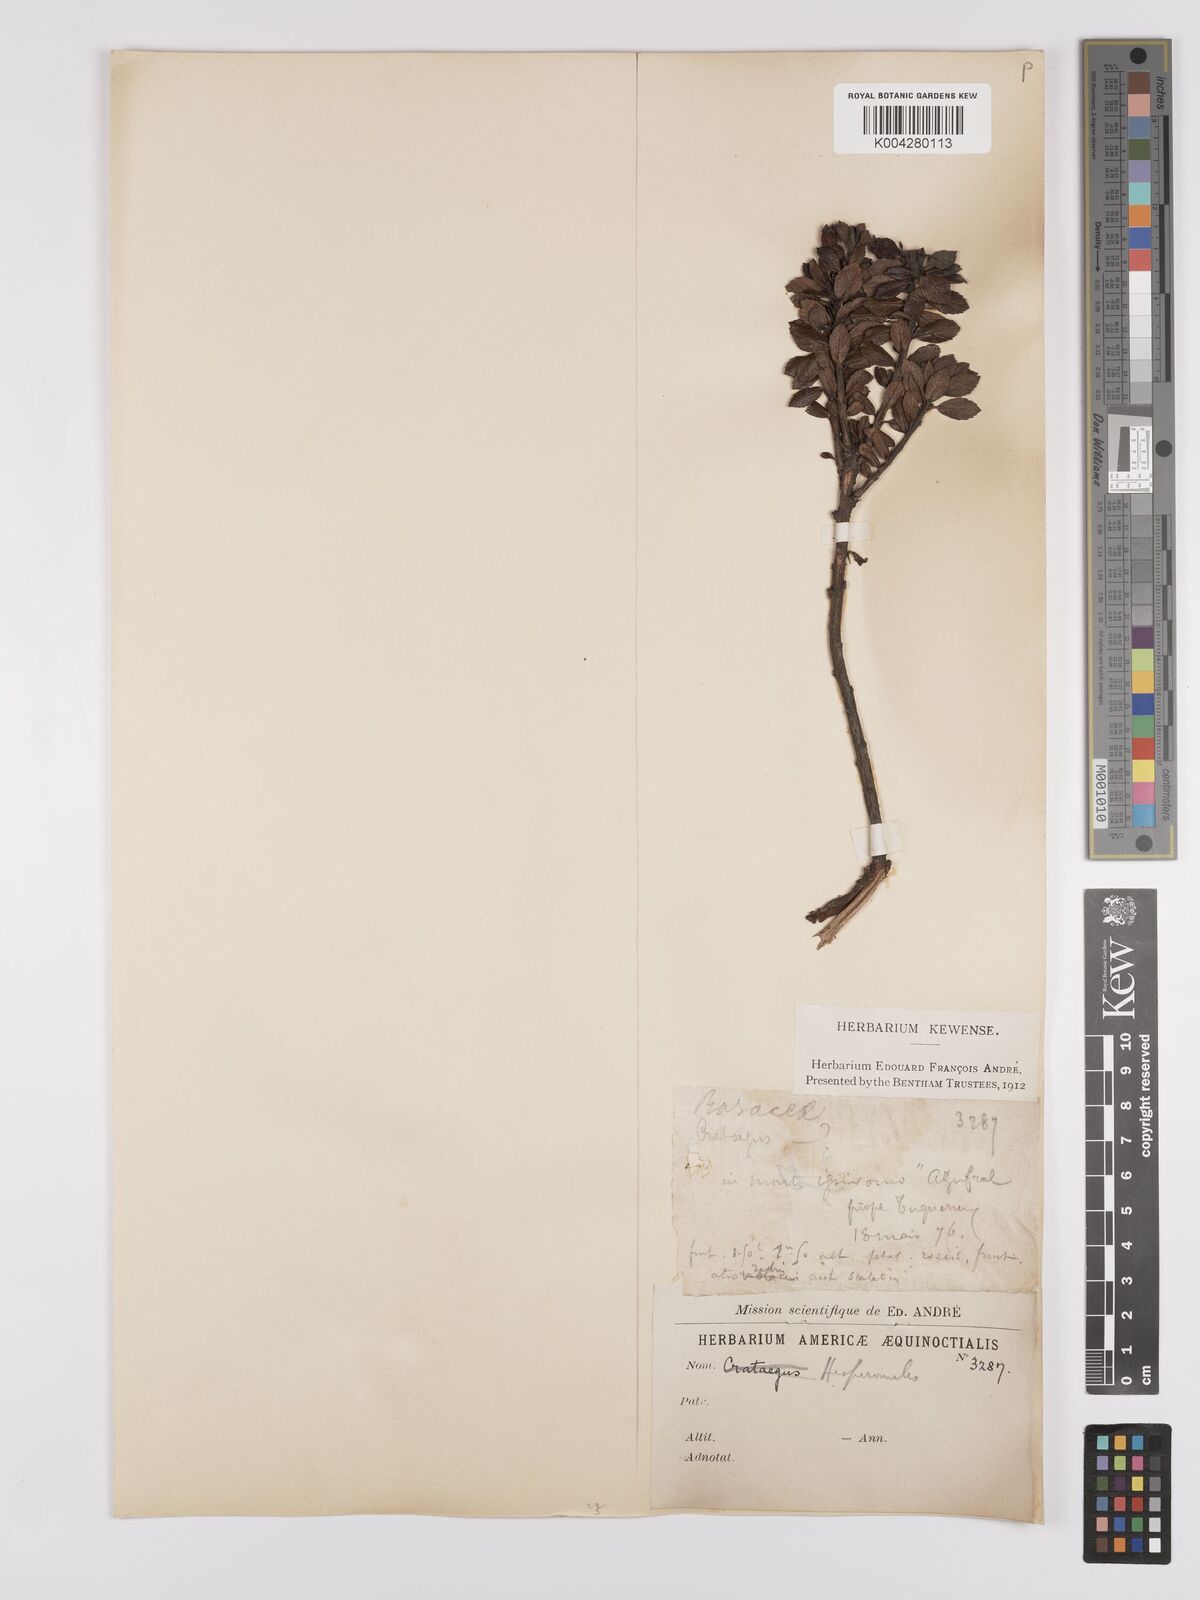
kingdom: Plantae
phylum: Tracheophyta
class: Magnoliopsida
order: Rosales
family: Rosaceae
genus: Hesperomeles
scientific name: Hesperomeles obtusifolia
